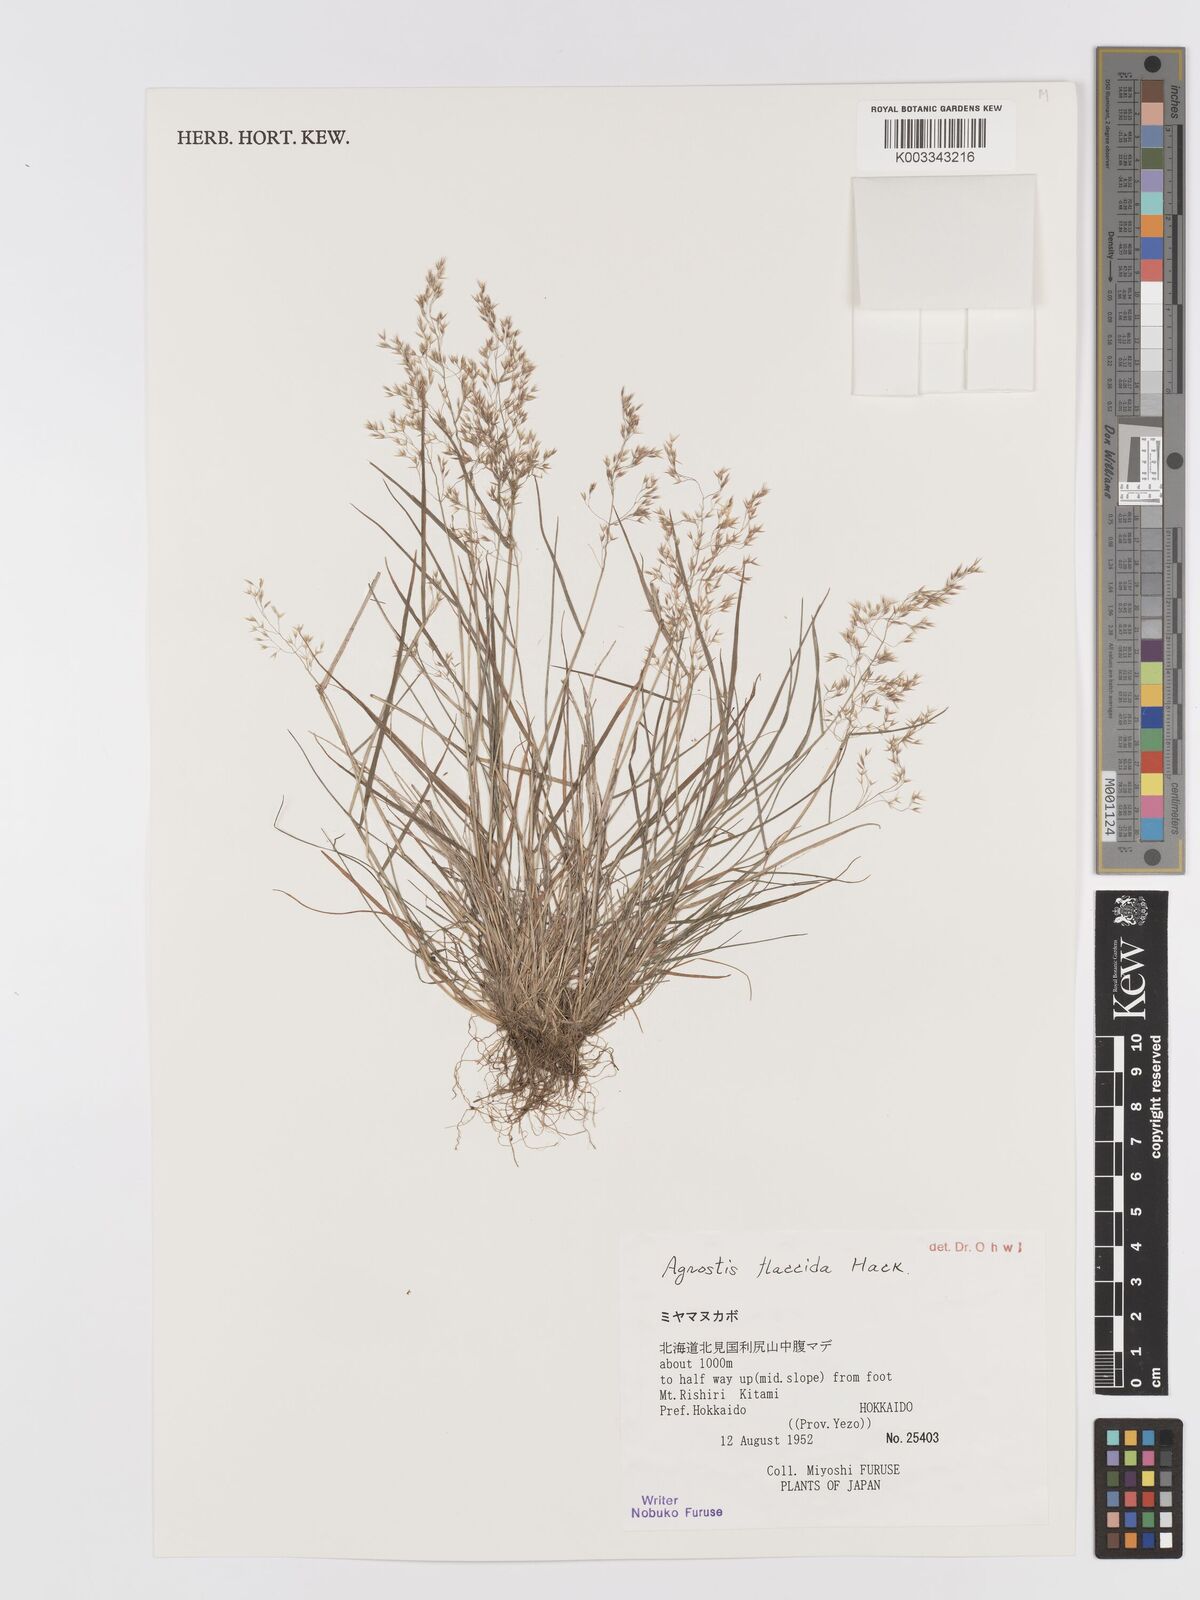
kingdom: Plantae
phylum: Tracheophyta
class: Liliopsida
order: Poales
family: Poaceae
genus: Agrostis
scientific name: Agrostis flaccida
